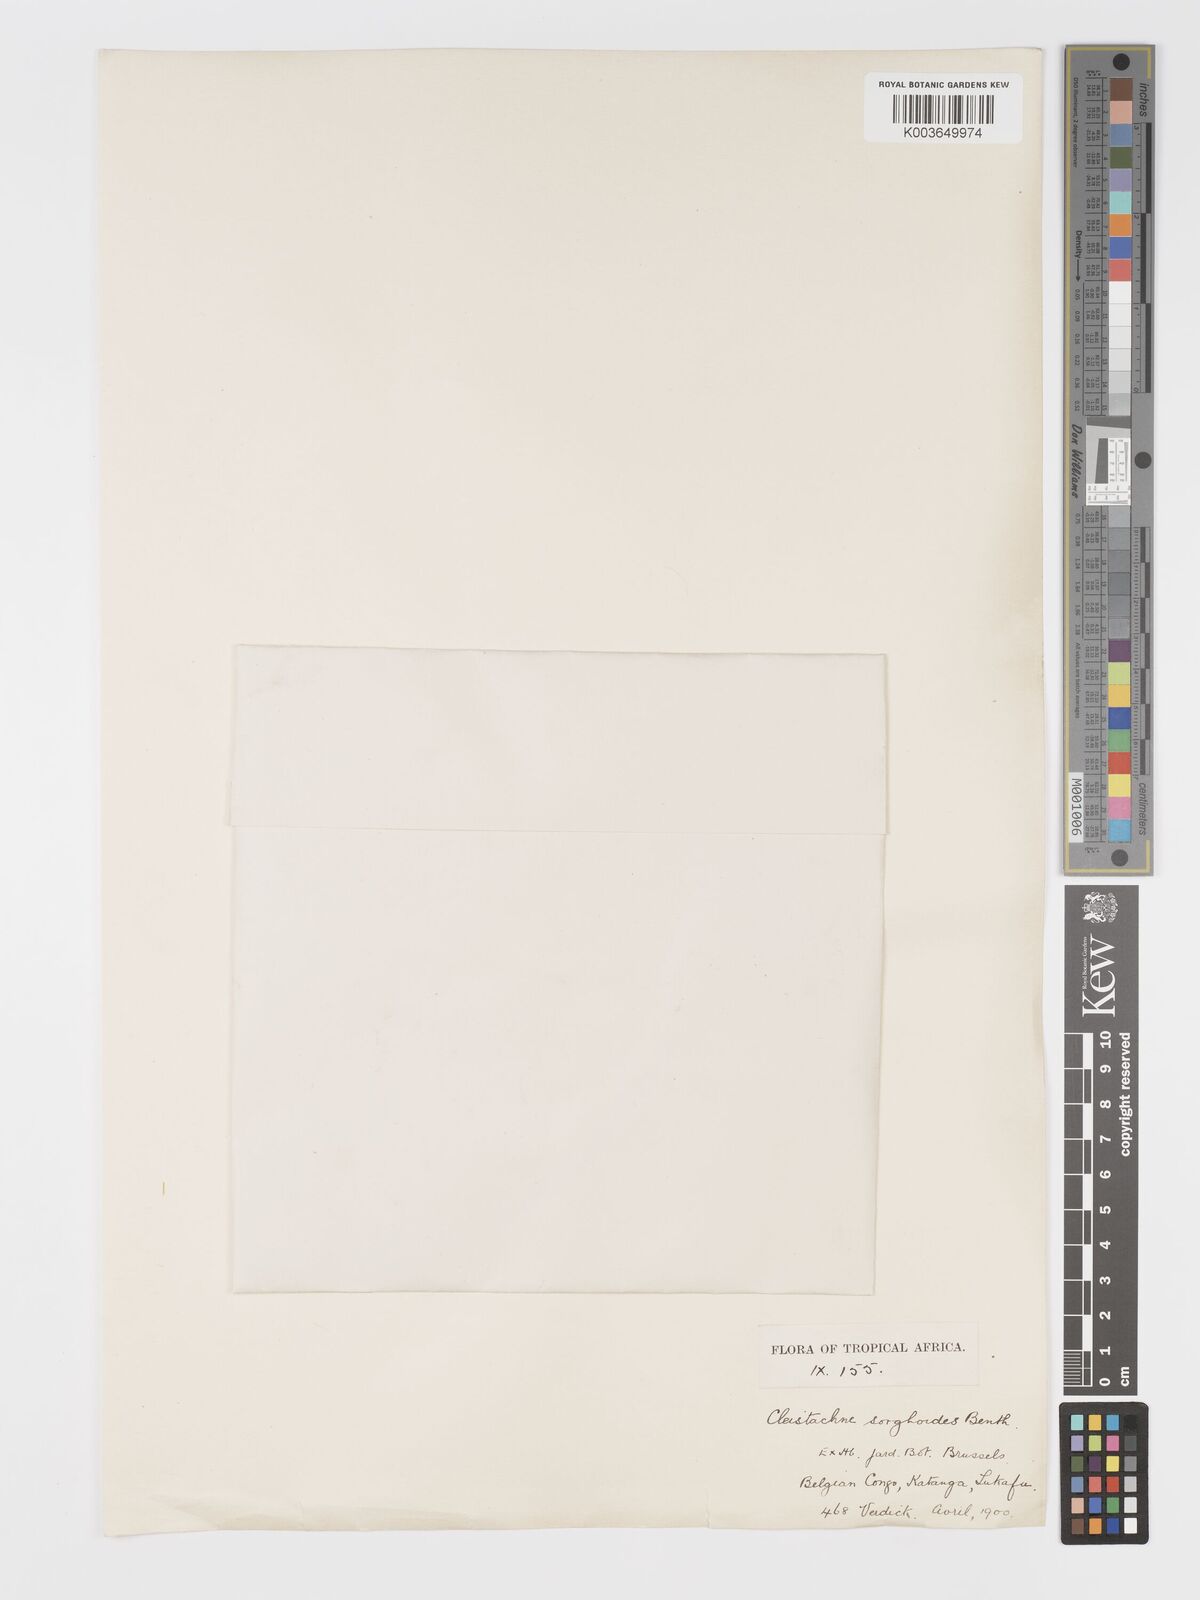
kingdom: Plantae
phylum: Tracheophyta
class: Liliopsida
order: Poales
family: Poaceae
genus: Cleistachne
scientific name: Cleistachne sorghoides
